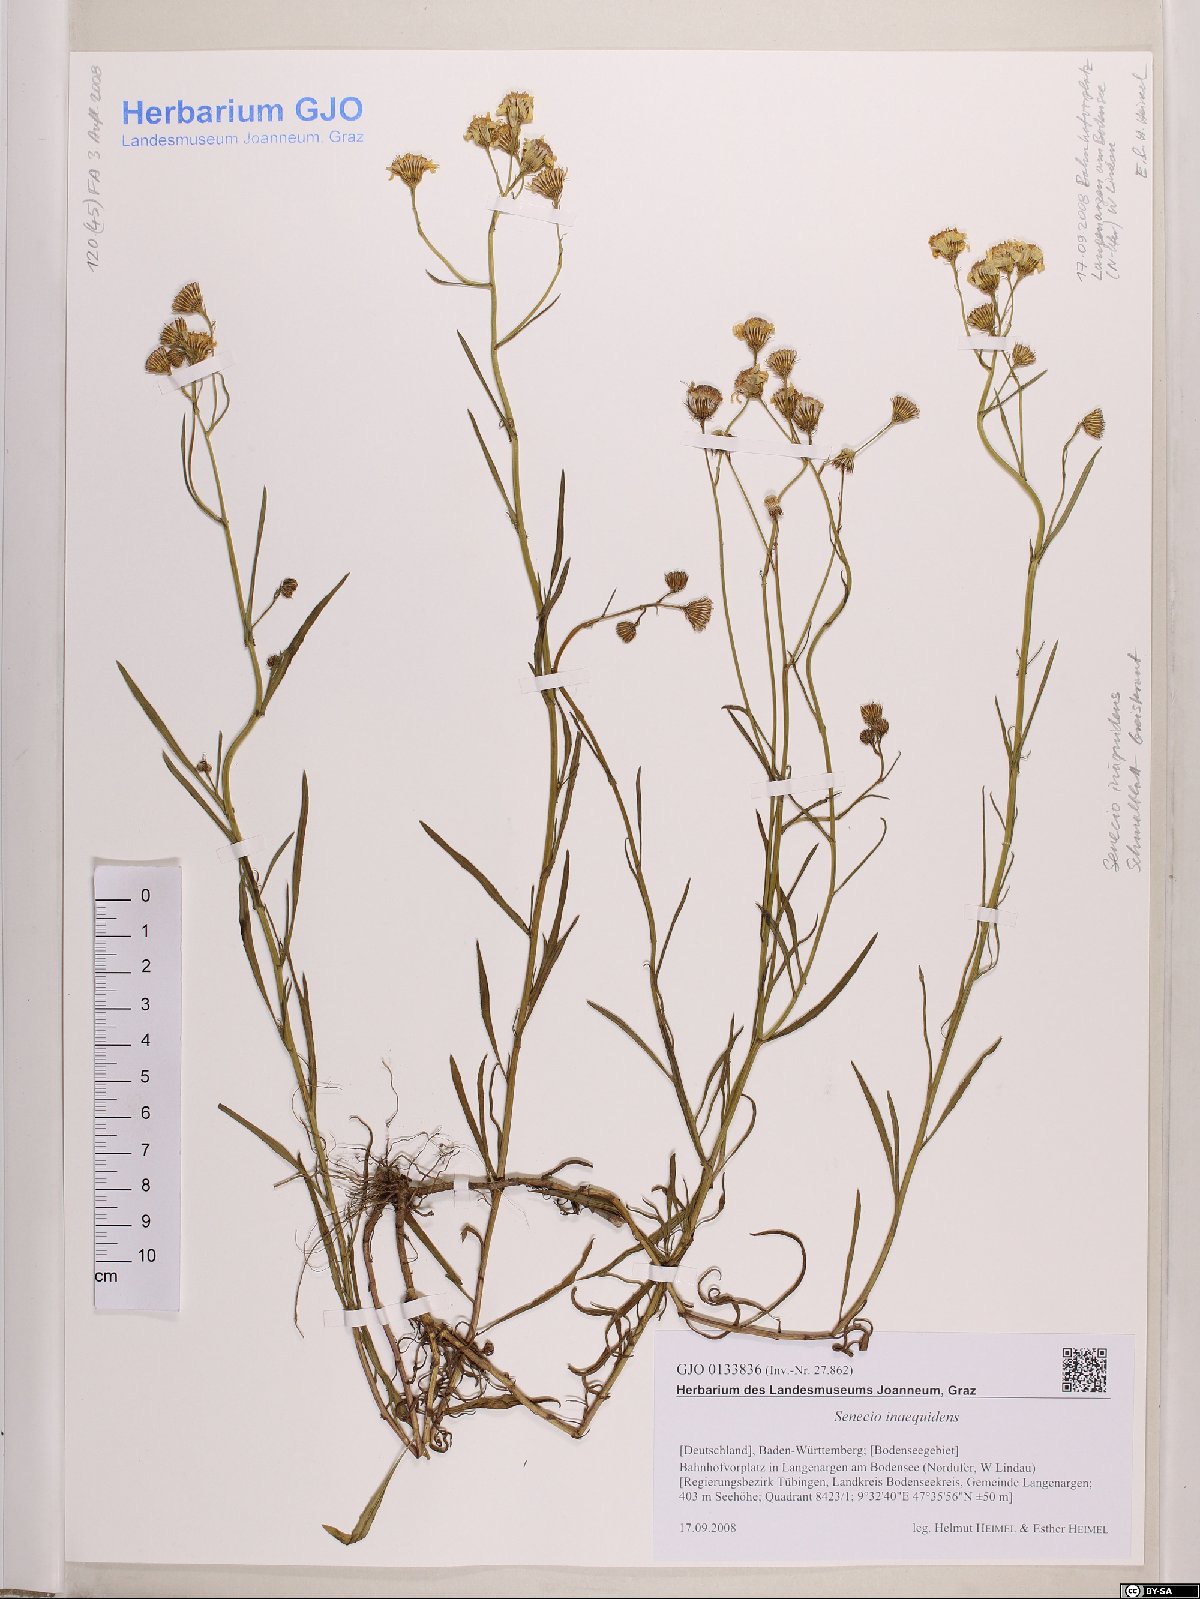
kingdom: Plantae
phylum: Tracheophyta
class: Magnoliopsida
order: Asterales
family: Asteraceae
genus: Senecio
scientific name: Senecio inaequidens
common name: Narrow-leaved ragwort
